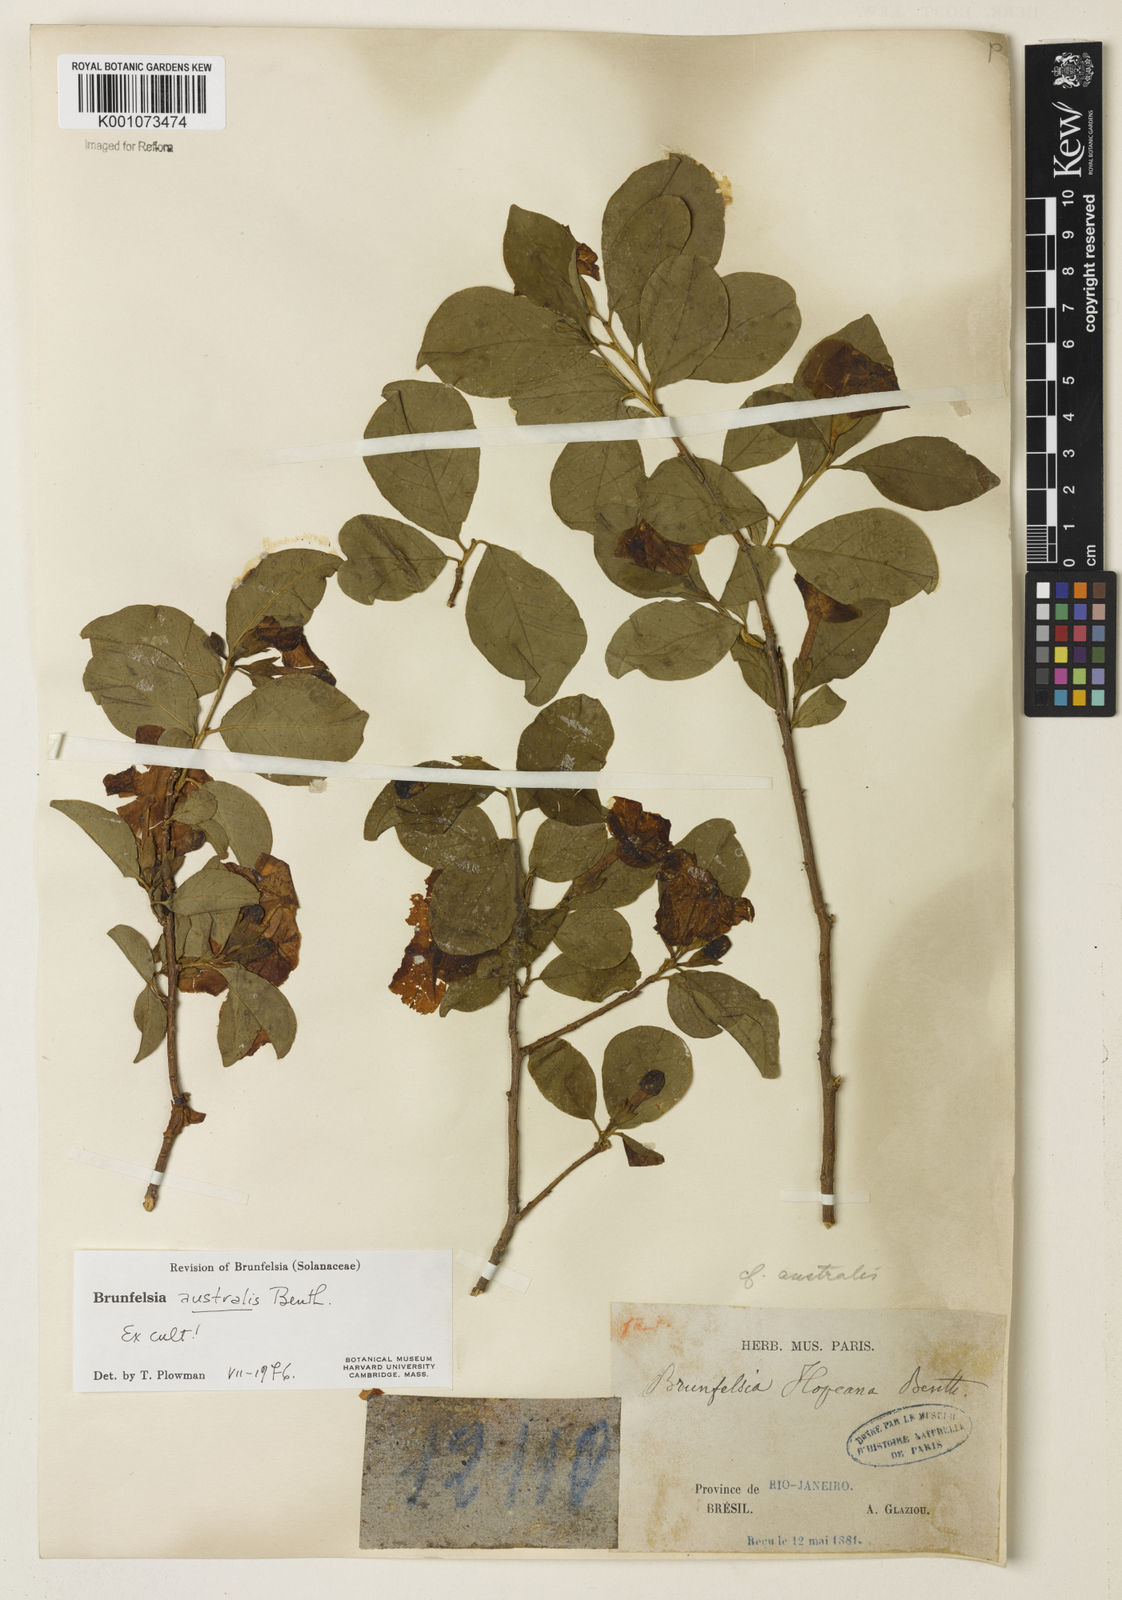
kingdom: Plantae
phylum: Tracheophyta
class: Magnoliopsida
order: Solanales
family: Solanaceae
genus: Brunfelsia
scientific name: Brunfelsia australis
